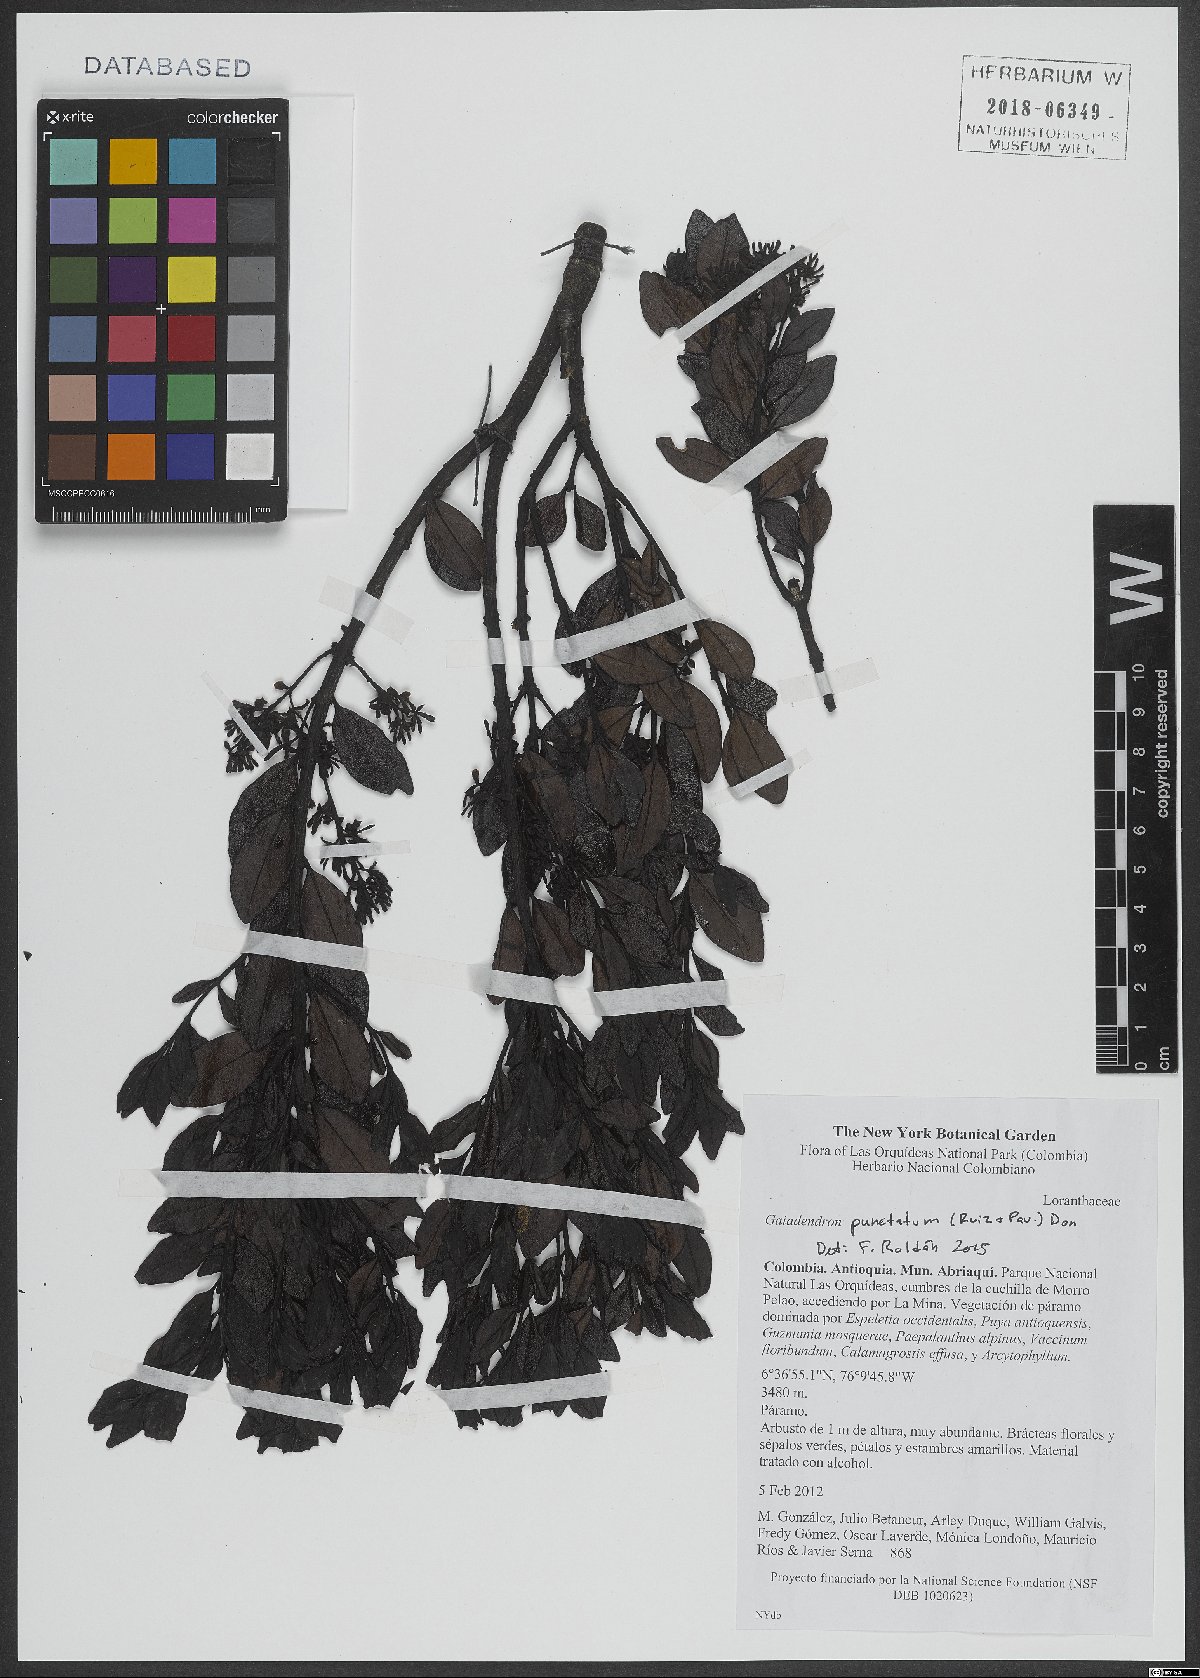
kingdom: Plantae
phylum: Tracheophyta
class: Magnoliopsida
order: Santalales
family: Loranthaceae
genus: Gaiadendron
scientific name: Gaiadendron punctatum
